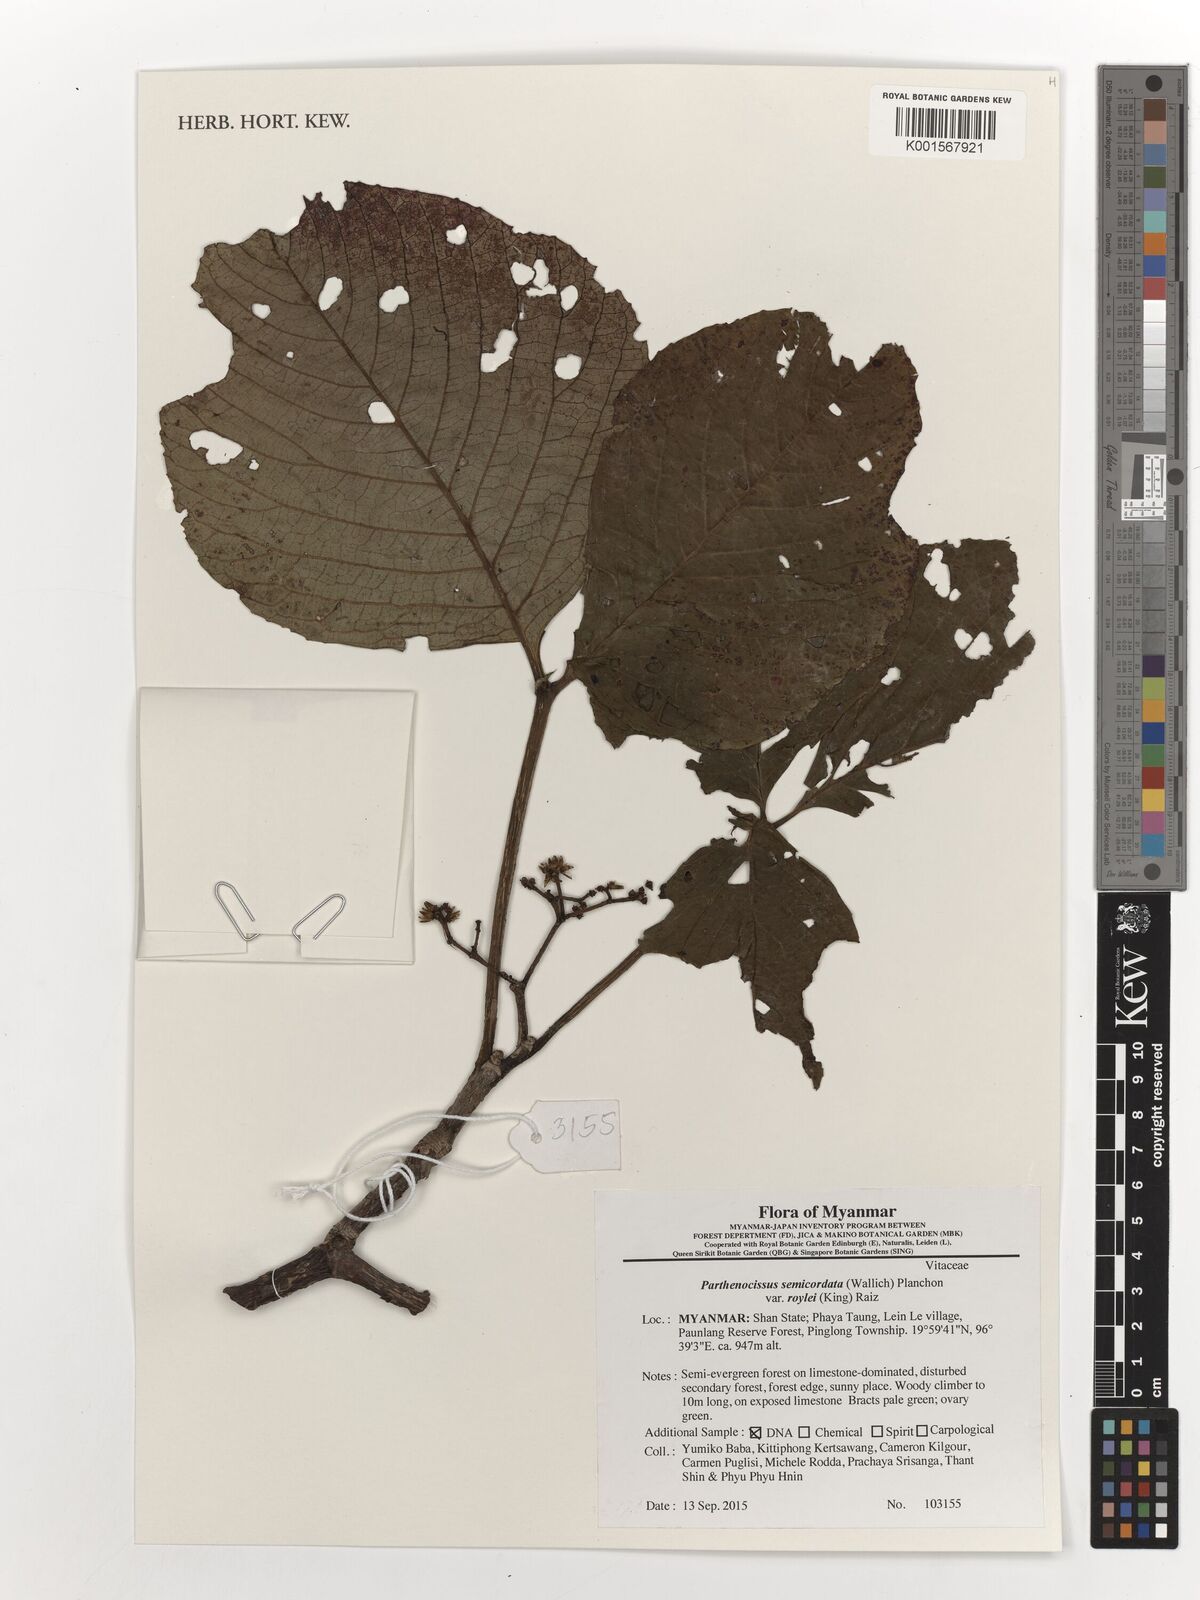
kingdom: Plantae
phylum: Tracheophyta
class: Magnoliopsida
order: Vitales
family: Vitaceae
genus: Parthenocissus
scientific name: Parthenocissus semicordata
